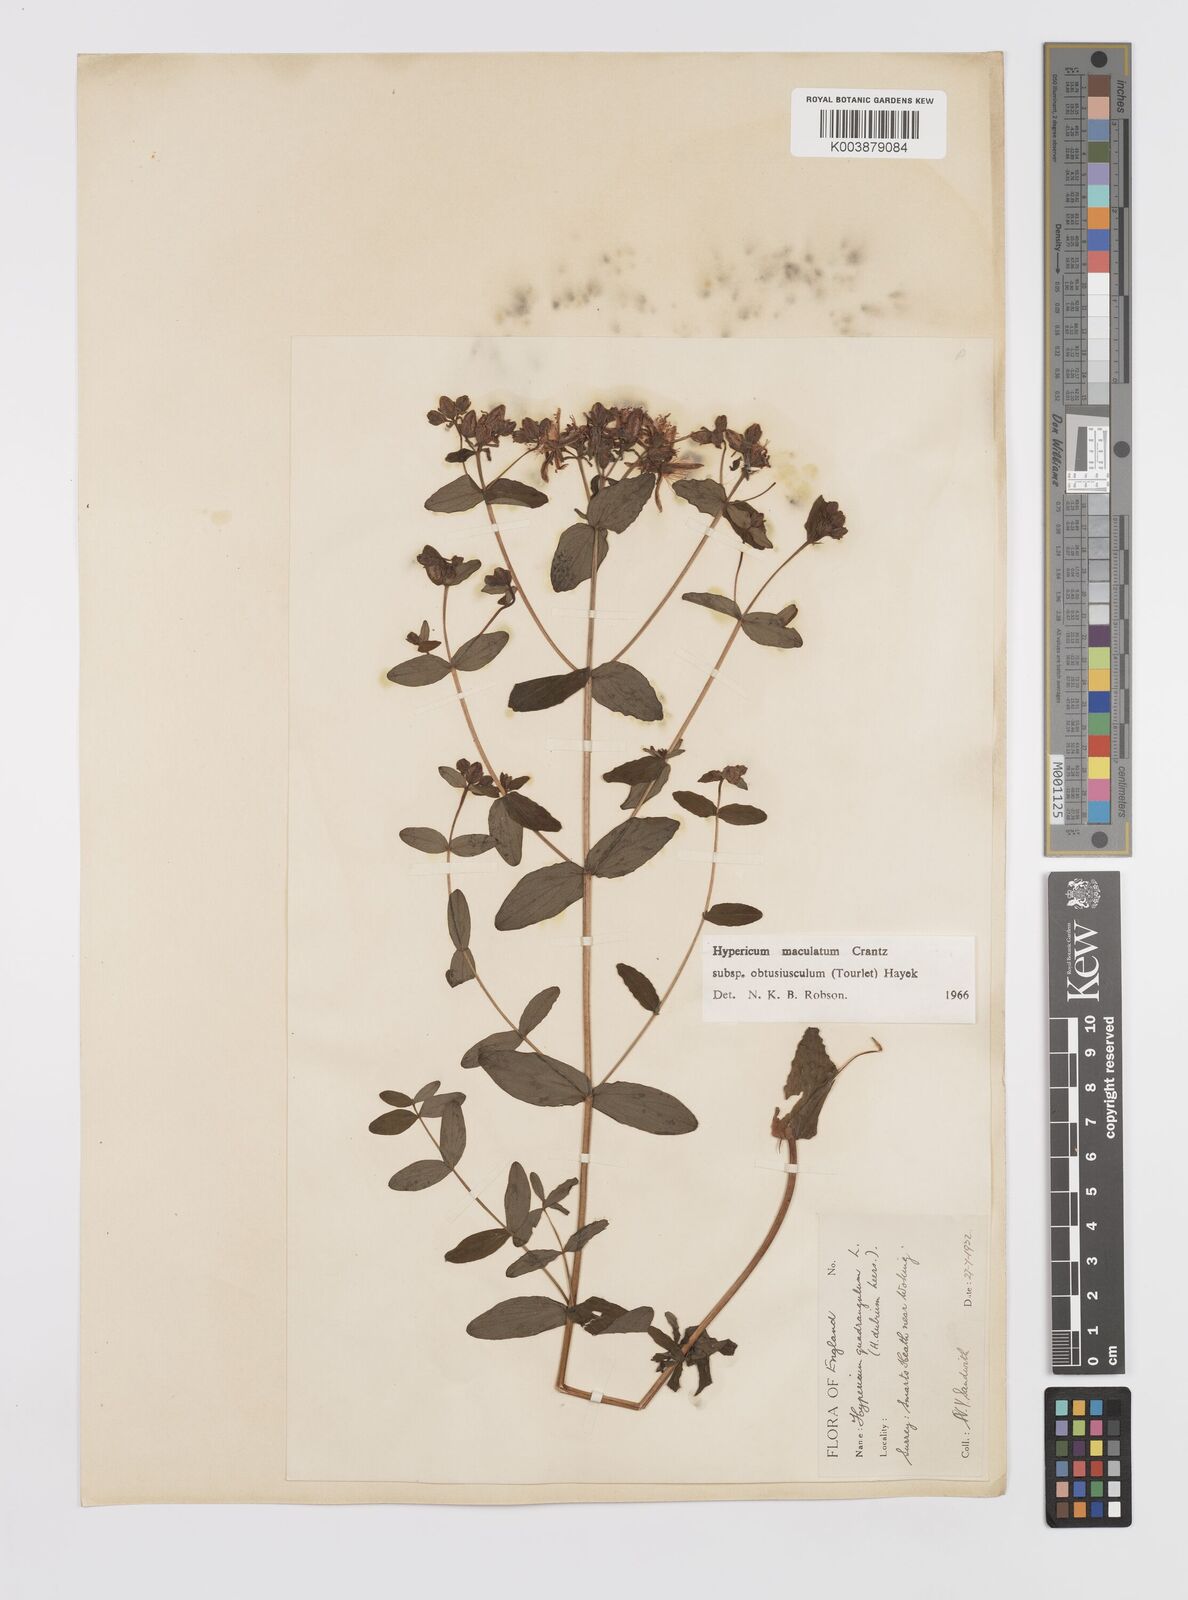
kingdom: Plantae
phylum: Tracheophyta
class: Magnoliopsida
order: Malpighiales
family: Hypericaceae
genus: Hypericum
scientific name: Hypericum dubium
